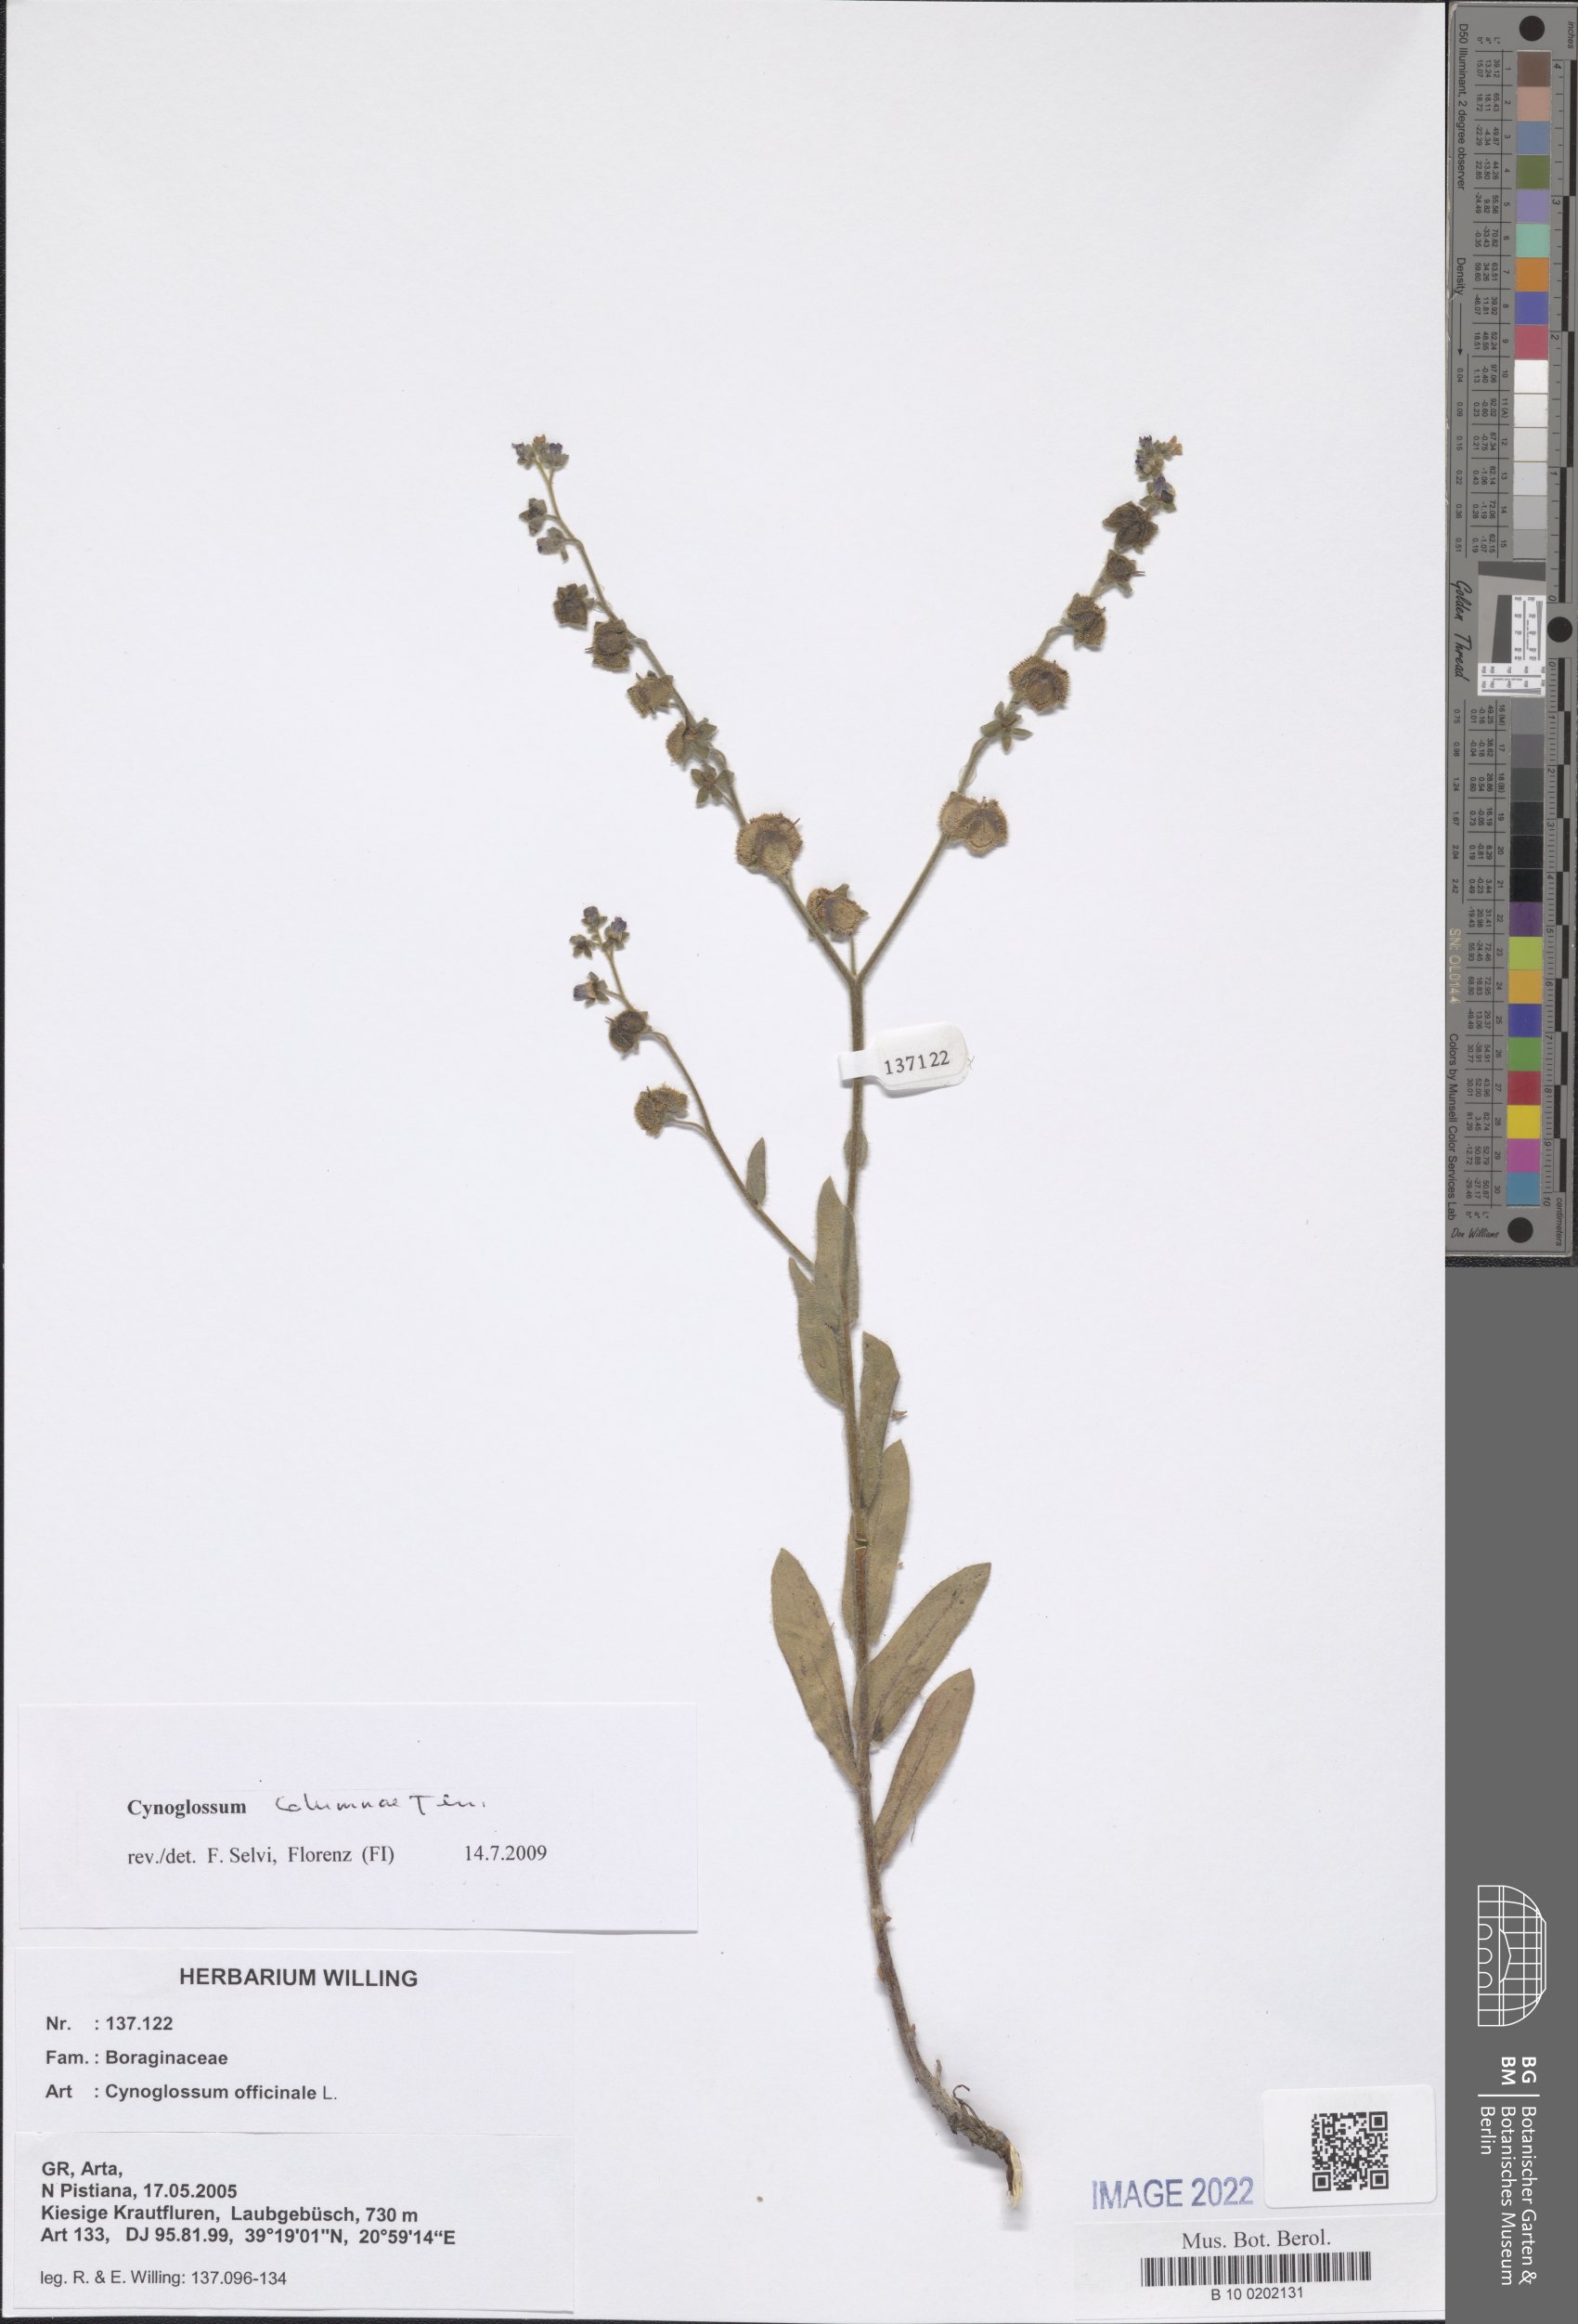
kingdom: Plantae
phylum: Tracheophyta
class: Magnoliopsida
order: Boraginales
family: Boraginaceae
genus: Rindera
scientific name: Rindera columnae
